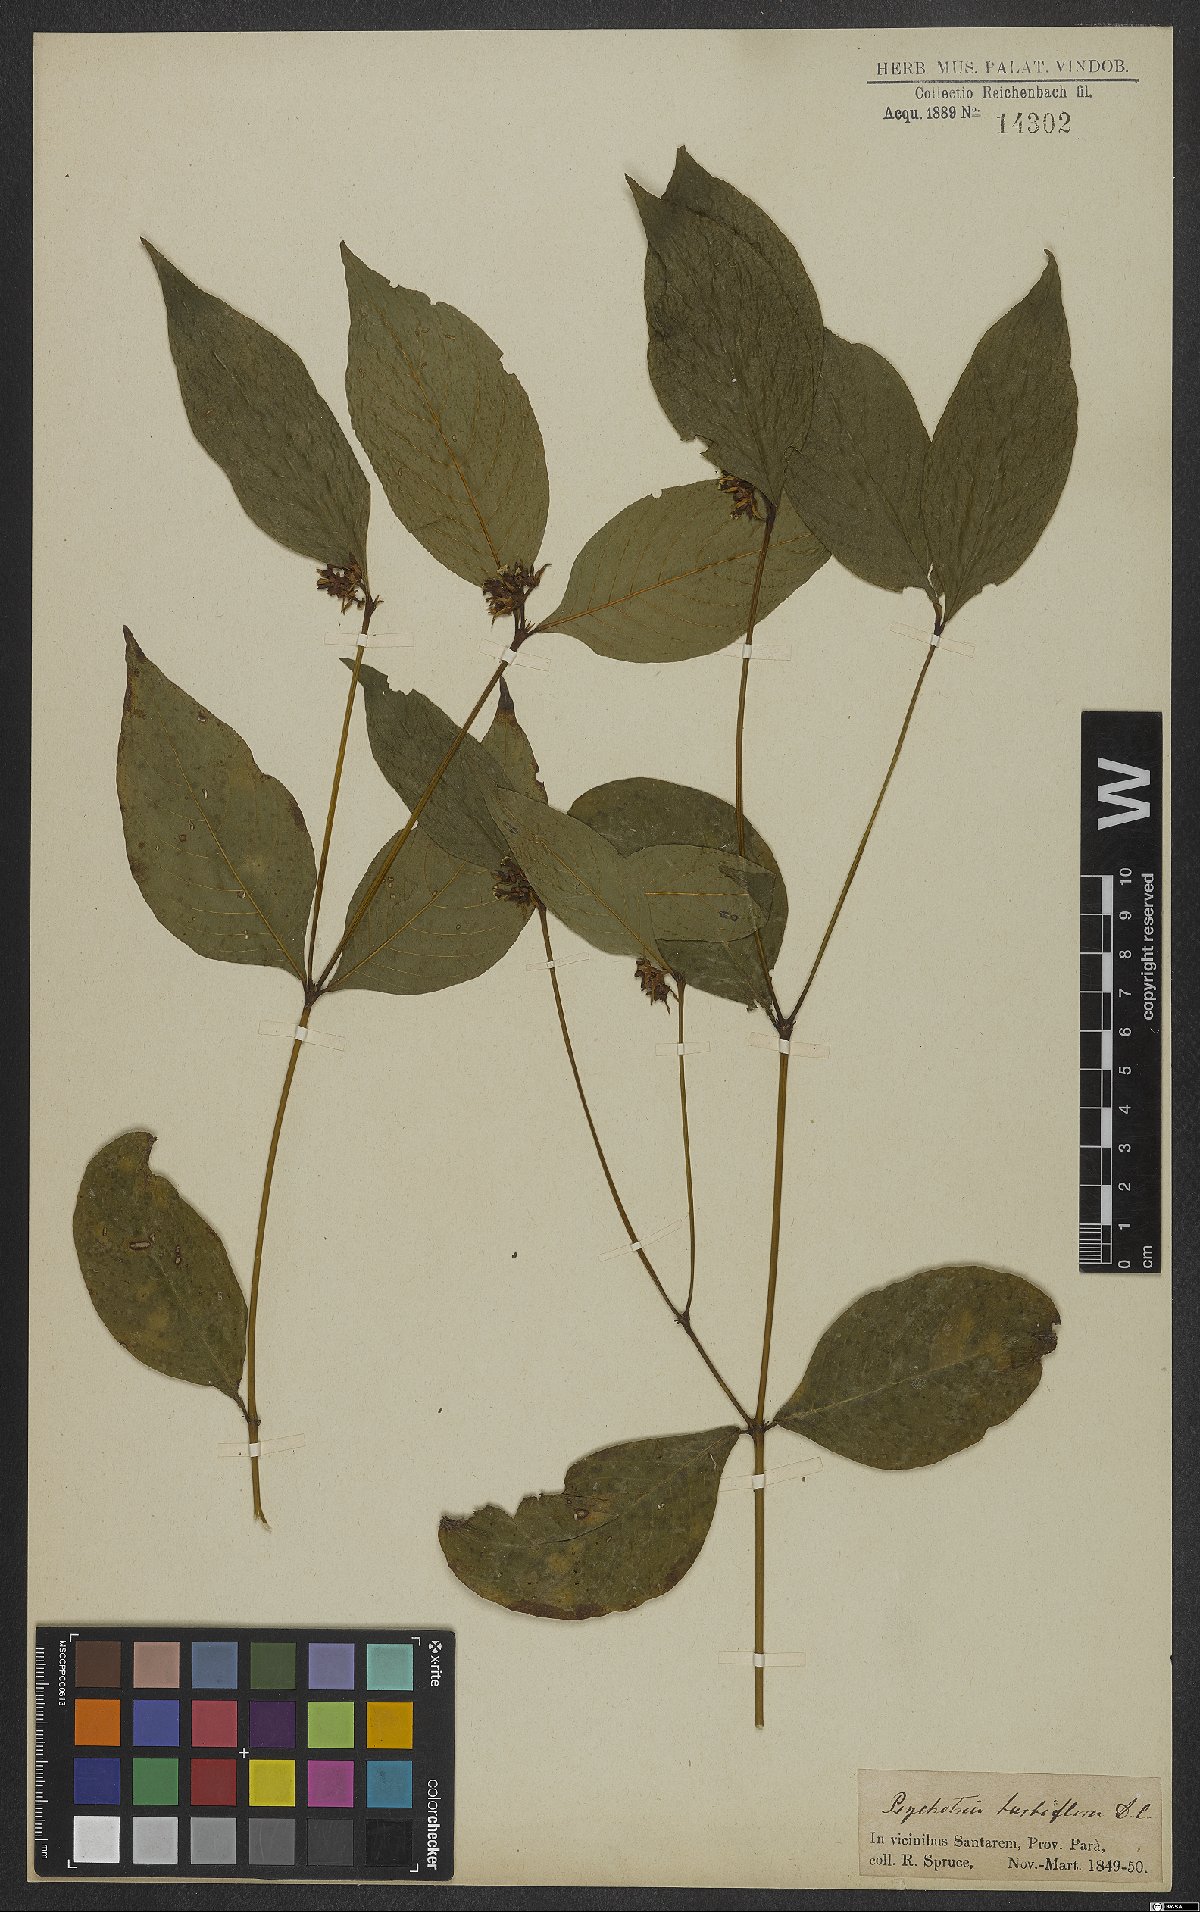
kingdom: Plantae
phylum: Tracheophyta
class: Magnoliopsida
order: Gentianales
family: Rubiaceae
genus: Palicourea
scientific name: Palicourea hoffmannseggiana
